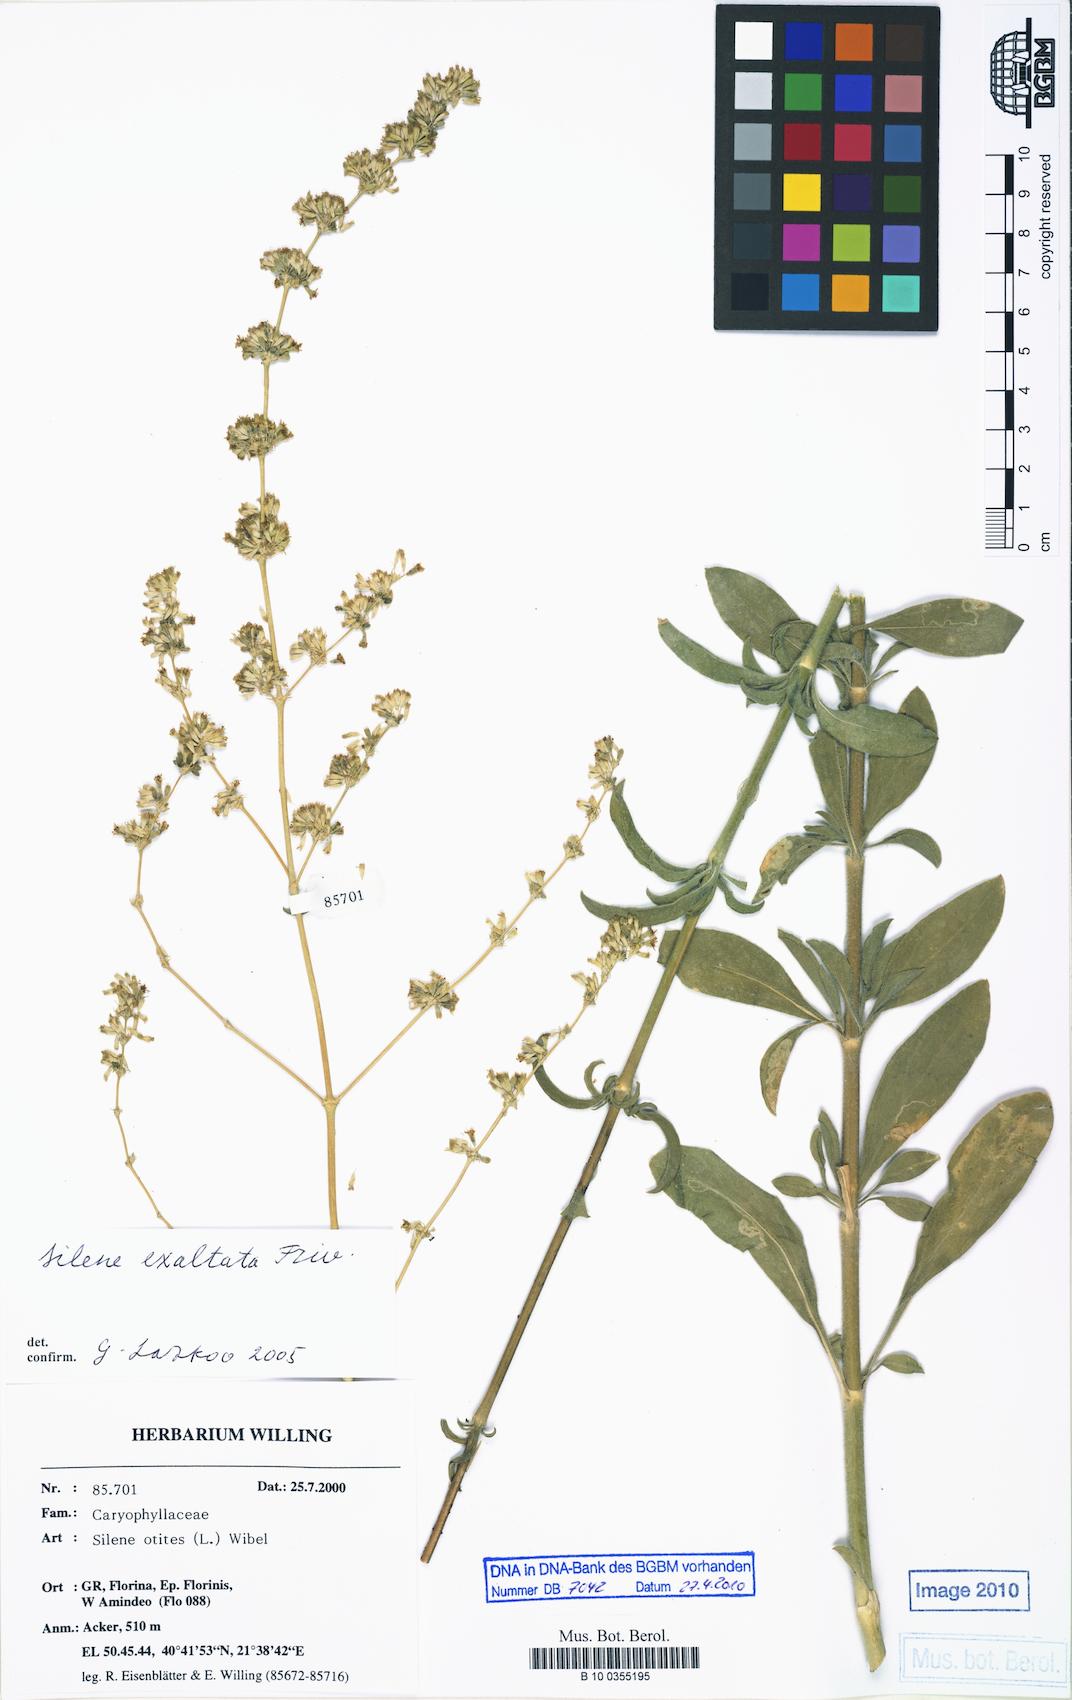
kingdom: Plantae
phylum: Tracheophyta
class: Magnoliopsida
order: Caryophyllales
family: Caryophyllaceae
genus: Silene
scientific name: Silene densiflora
